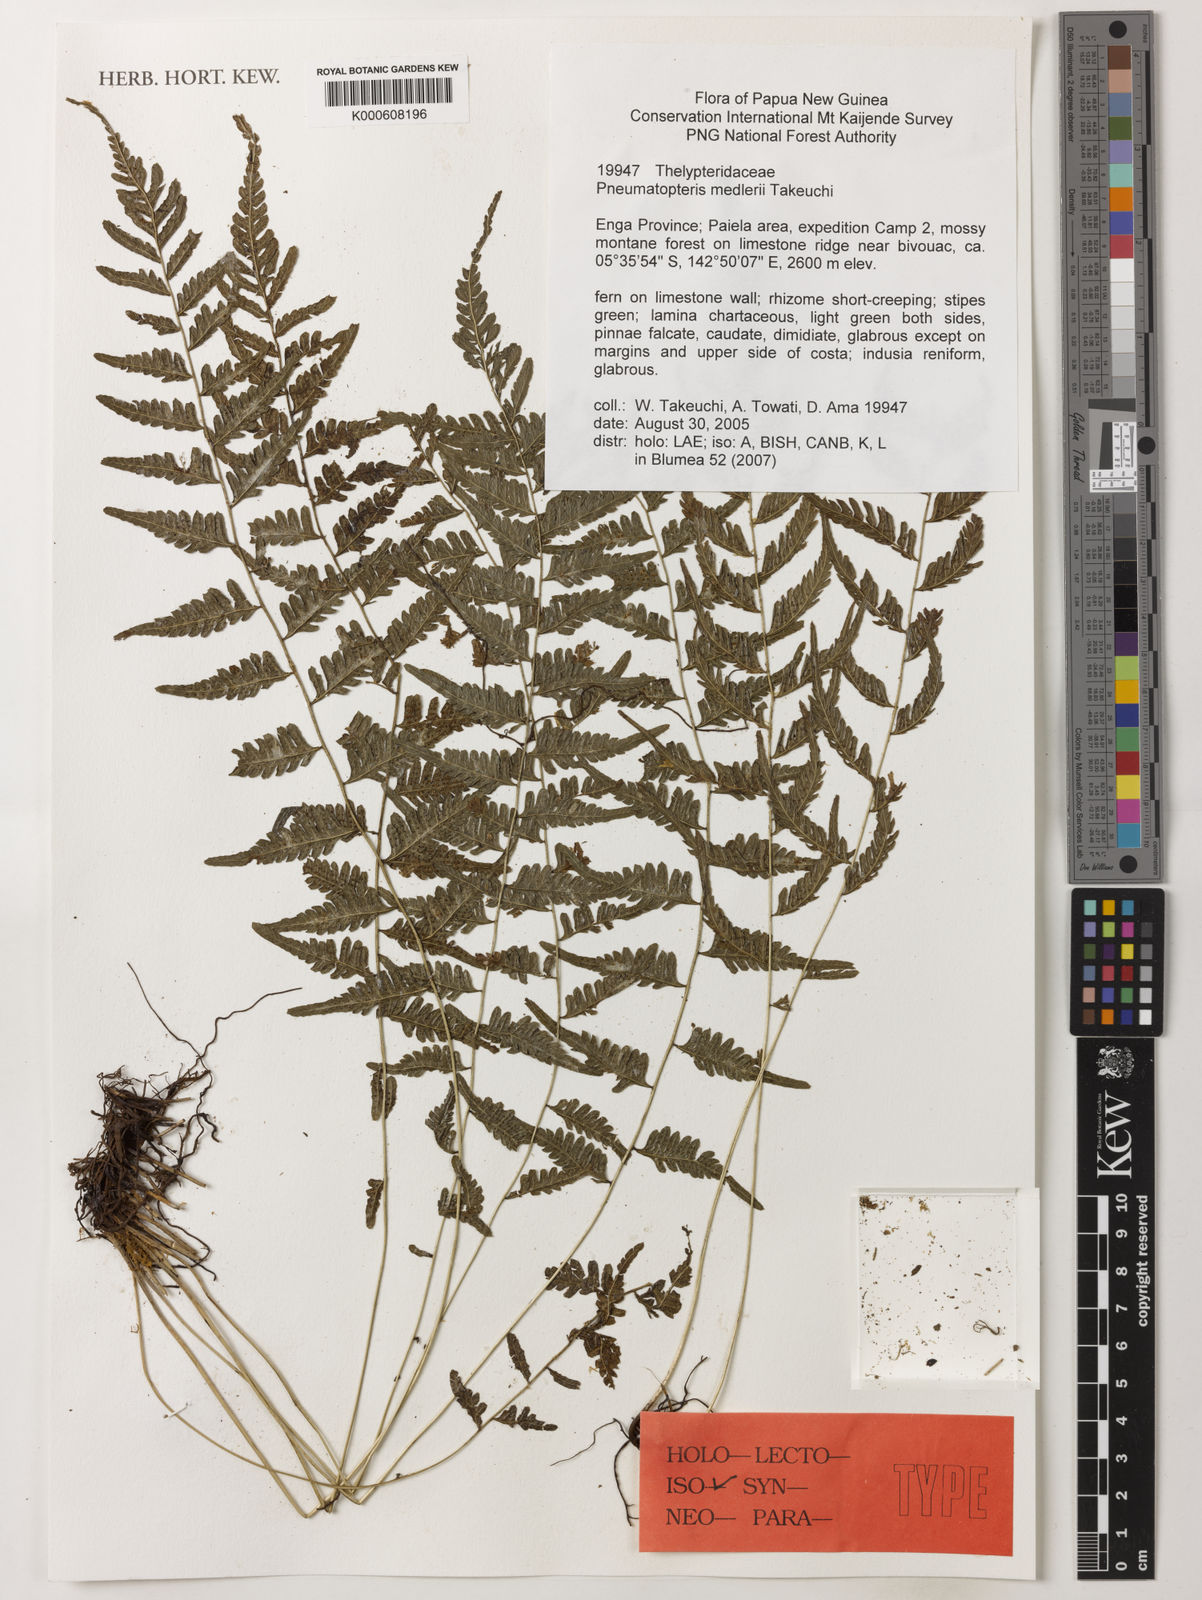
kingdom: Plantae
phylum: Tracheophyta
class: Polypodiopsida
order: Polypodiales
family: Thelypteridaceae
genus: Plesioneuron
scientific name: Plesioneuron medlerae
